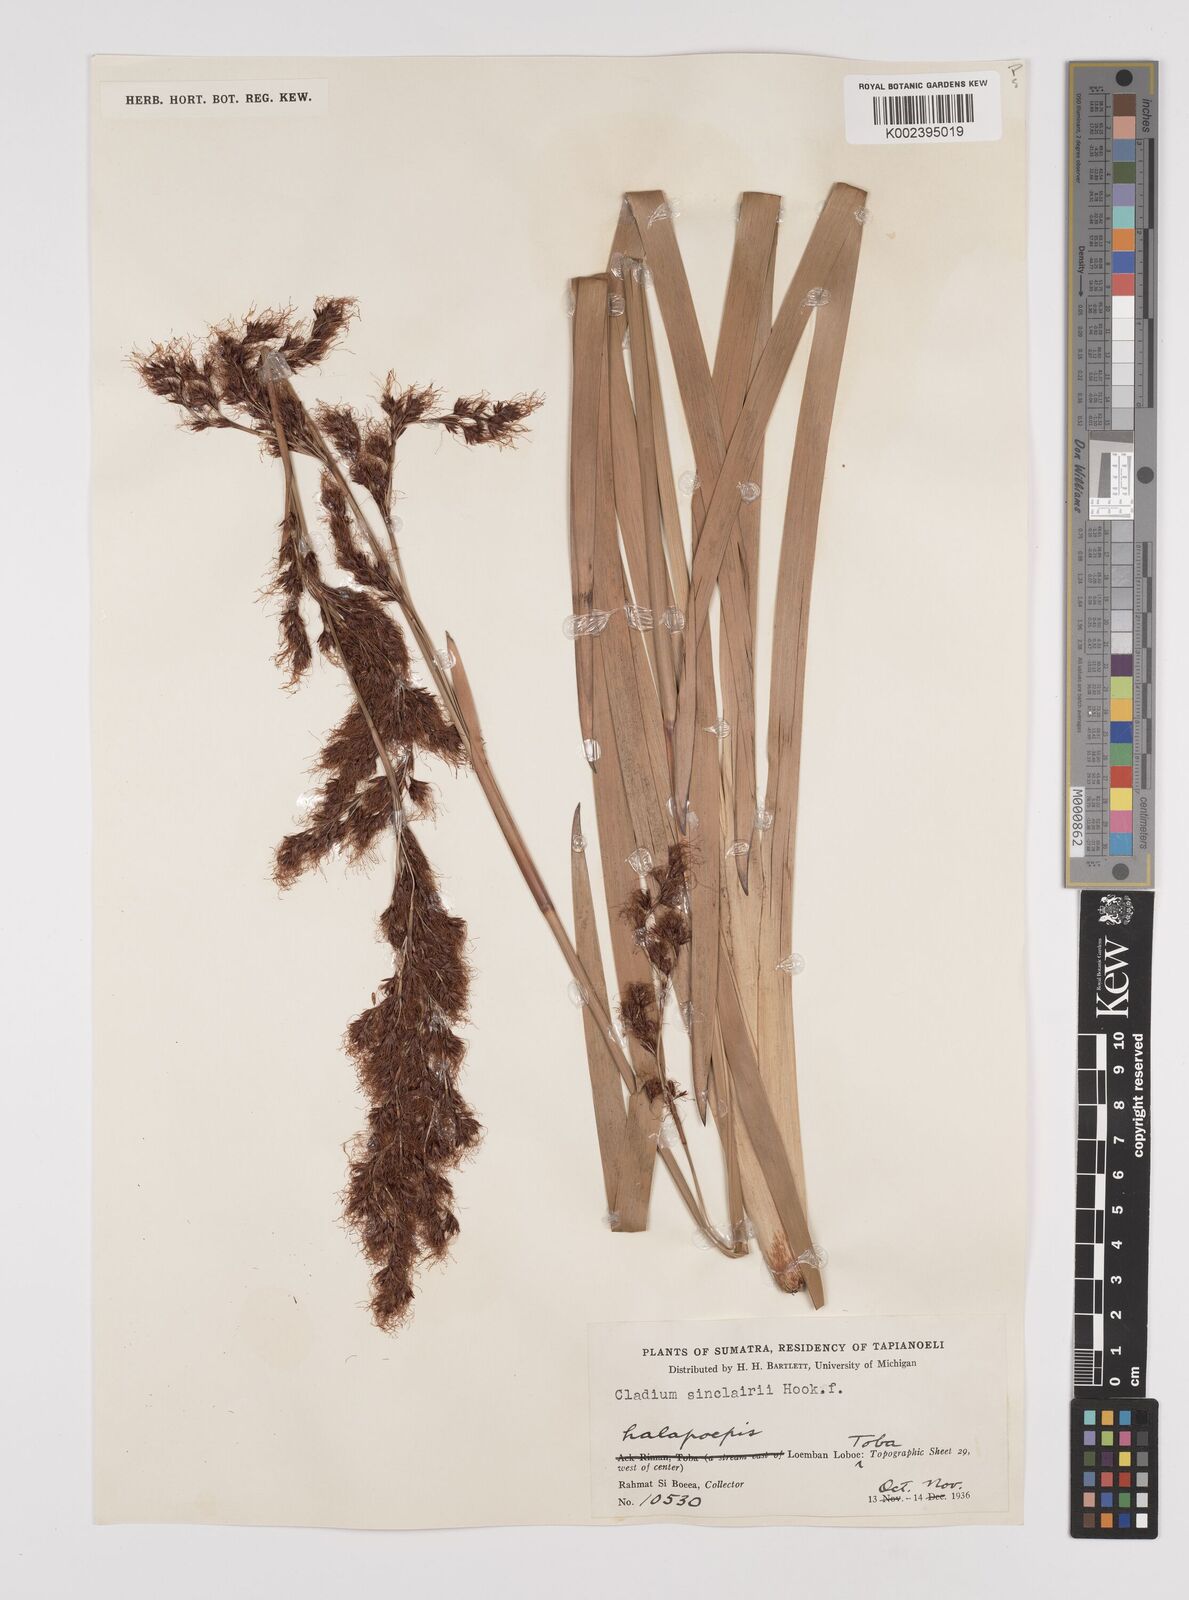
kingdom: Plantae
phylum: Tracheophyta
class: Liliopsida
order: Poales
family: Cyperaceae
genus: Machaerina
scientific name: Machaerina sinclairii
